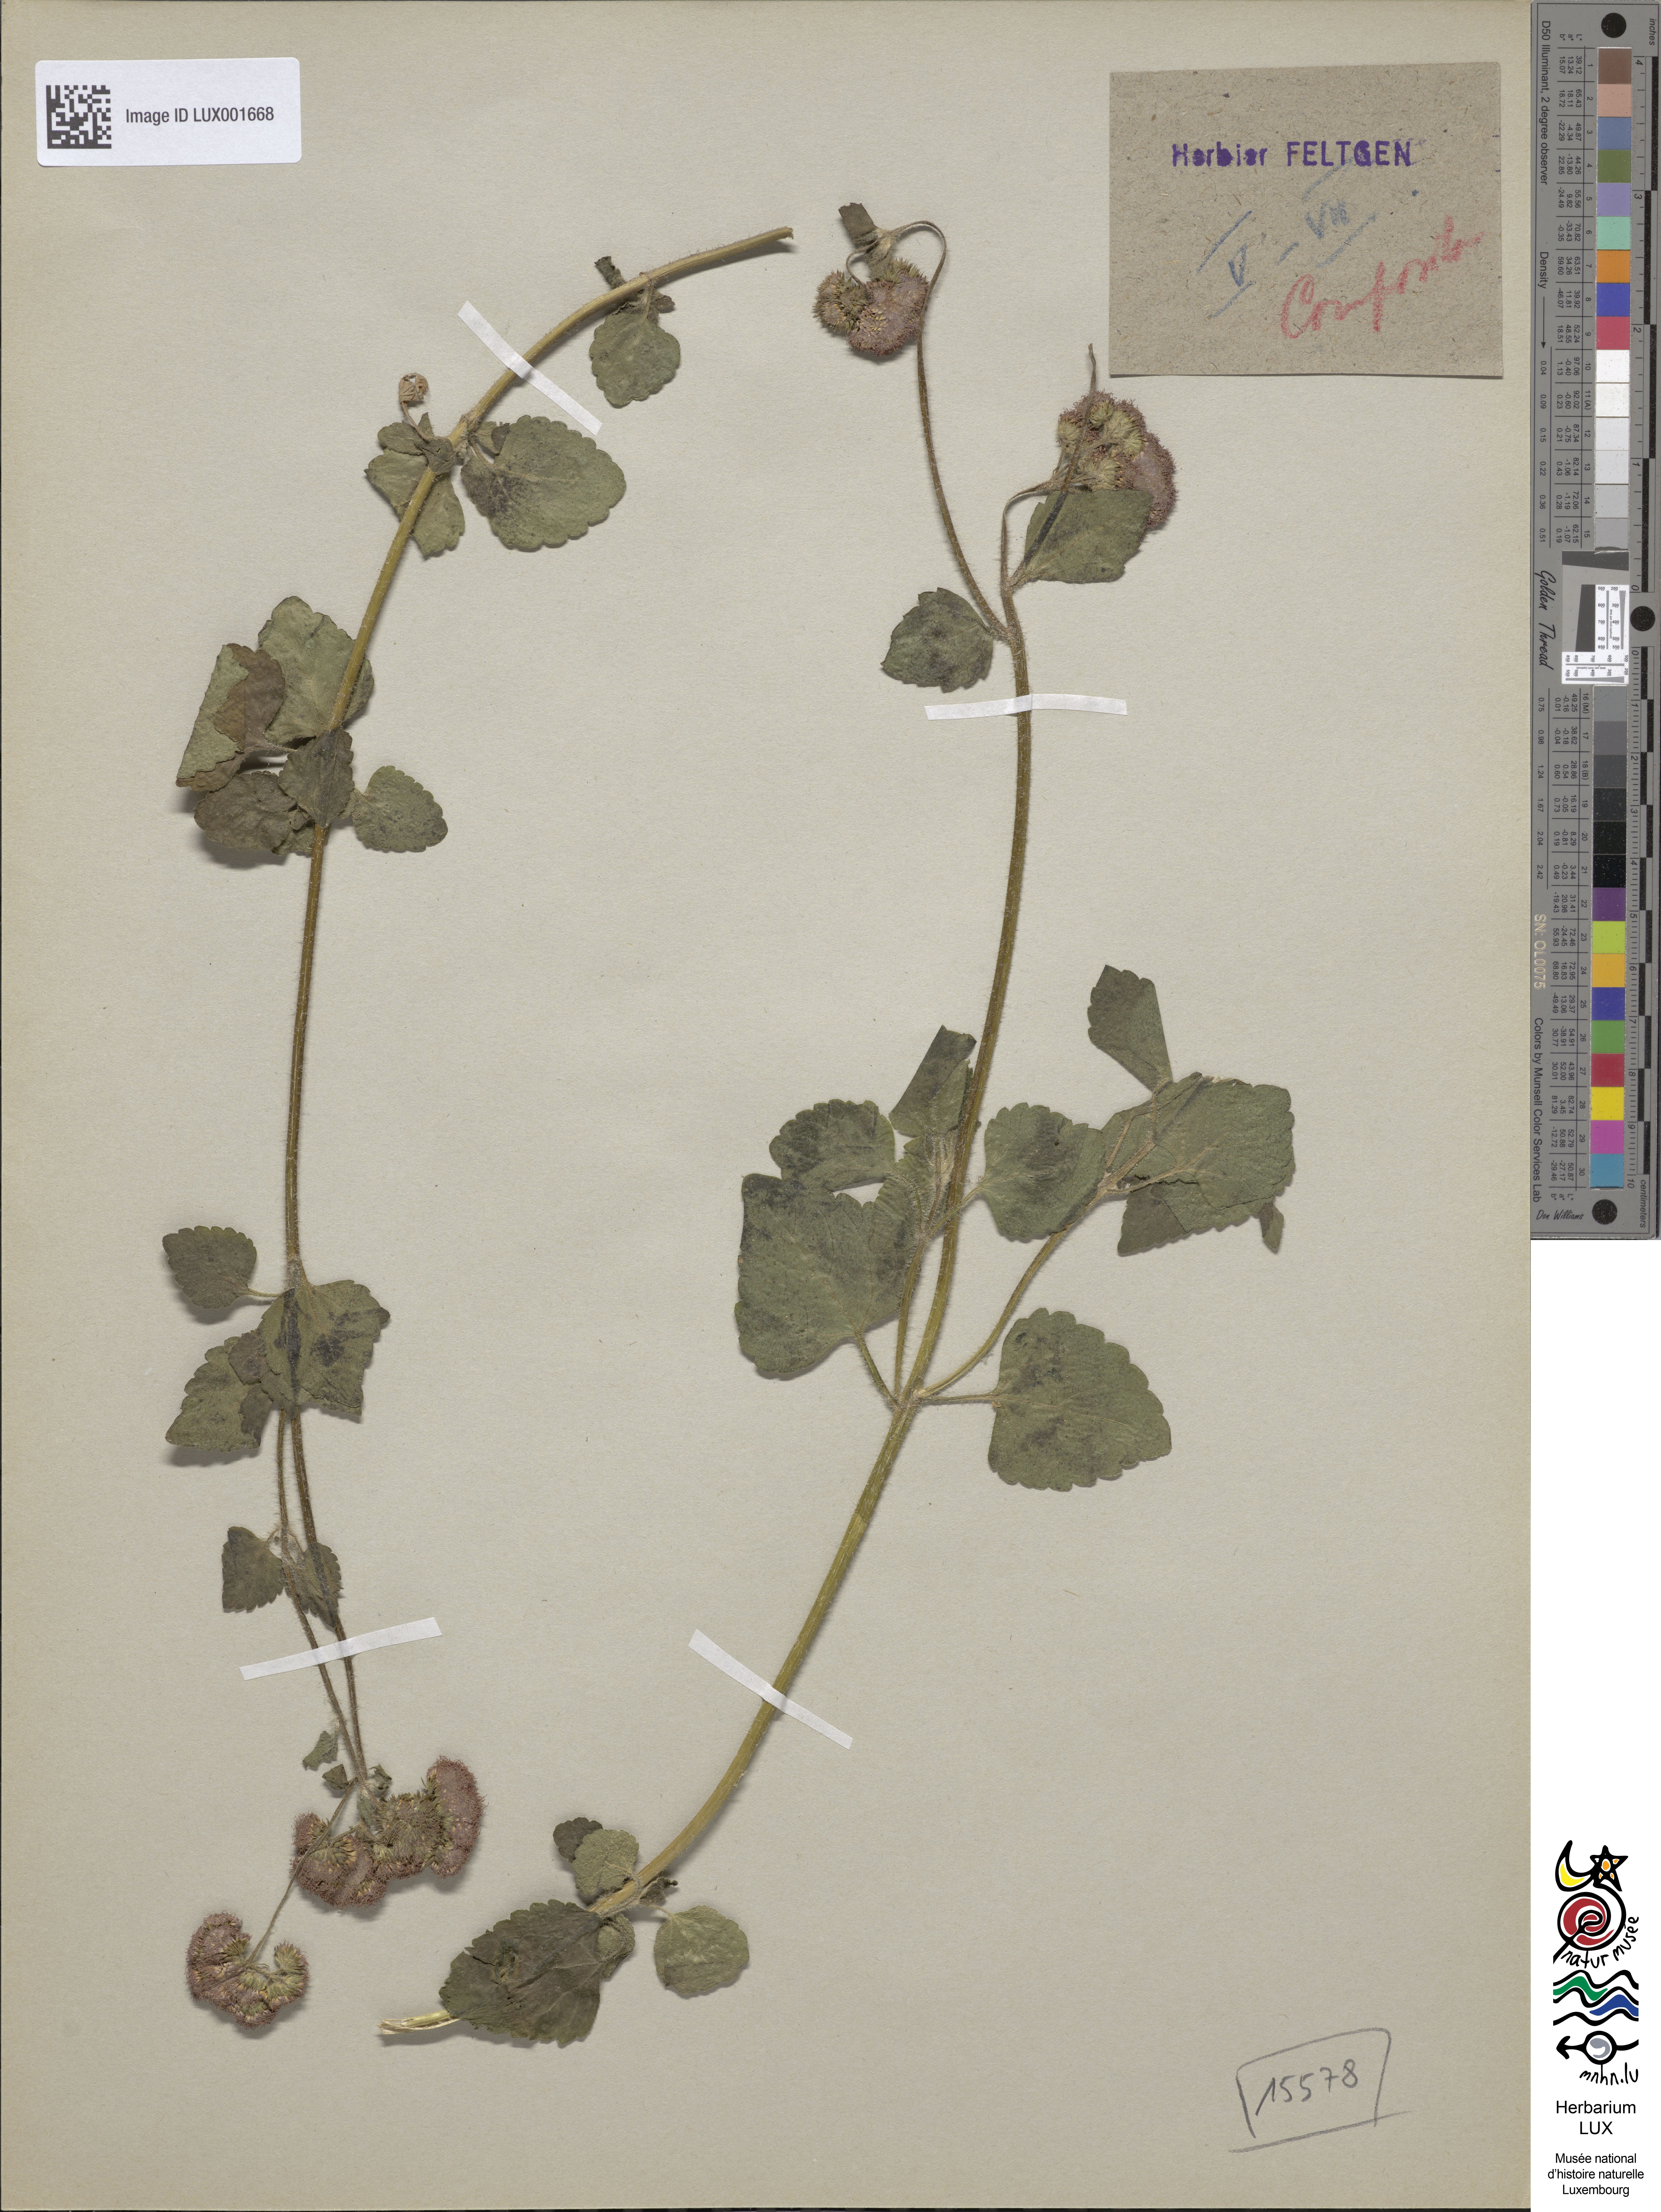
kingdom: Plantae
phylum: Tracheophyta
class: Magnoliopsida
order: Asterales
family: Asteraceae
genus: Ageratum
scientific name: Ageratum houstonianum
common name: Bluemink
